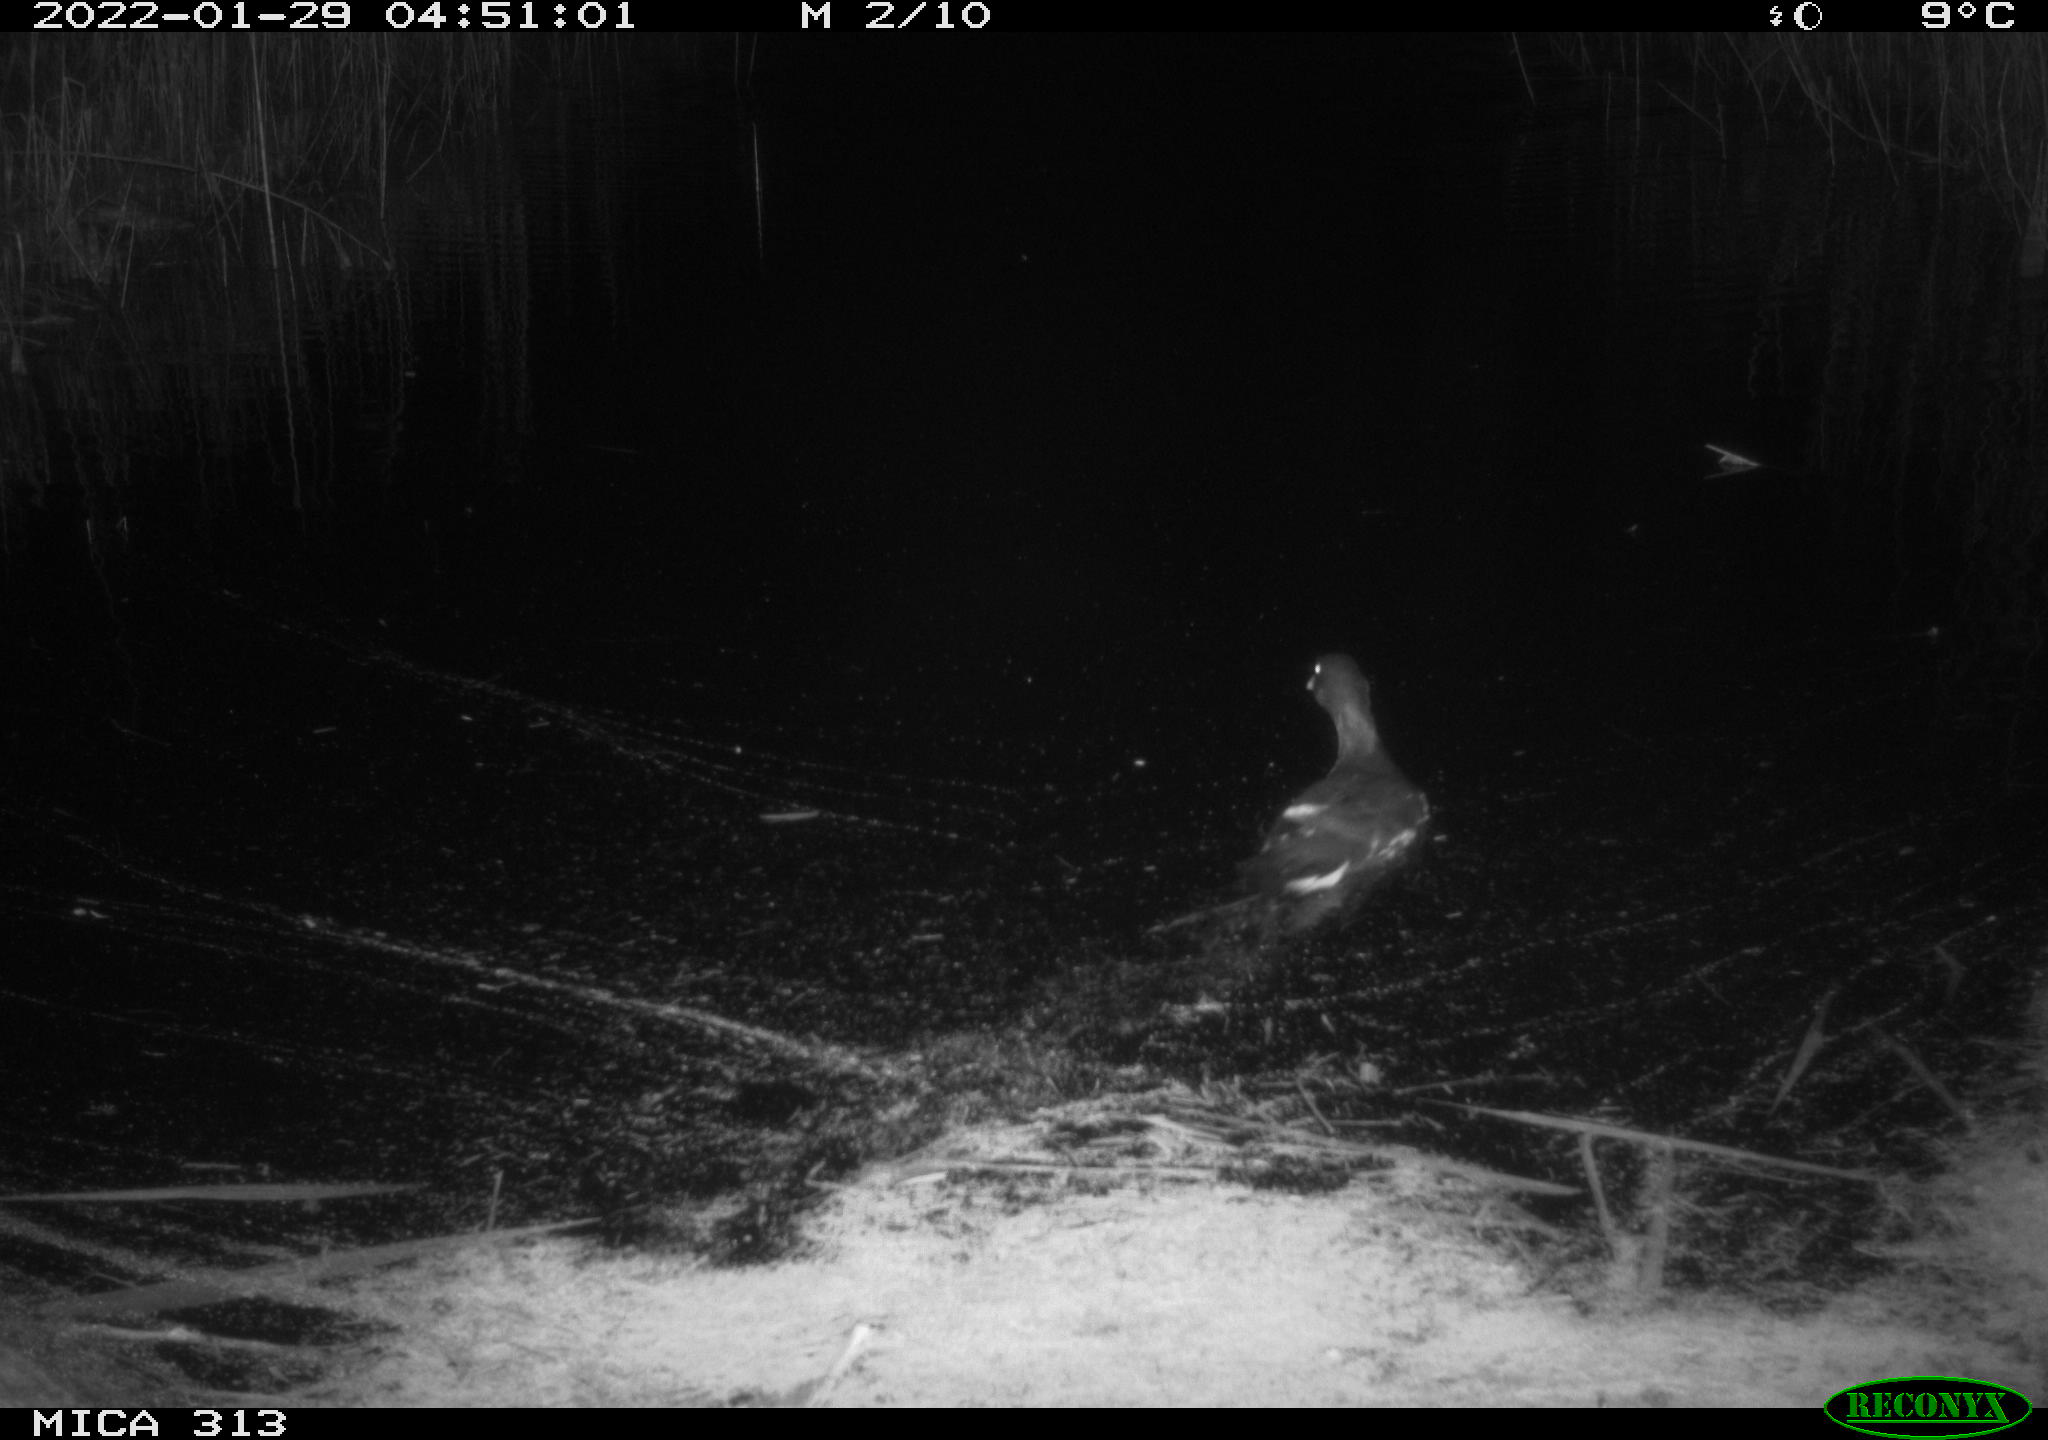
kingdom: Animalia
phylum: Chordata
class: Aves
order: Gruiformes
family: Rallidae
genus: Gallinula
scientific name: Gallinula chloropus
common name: Common moorhen
